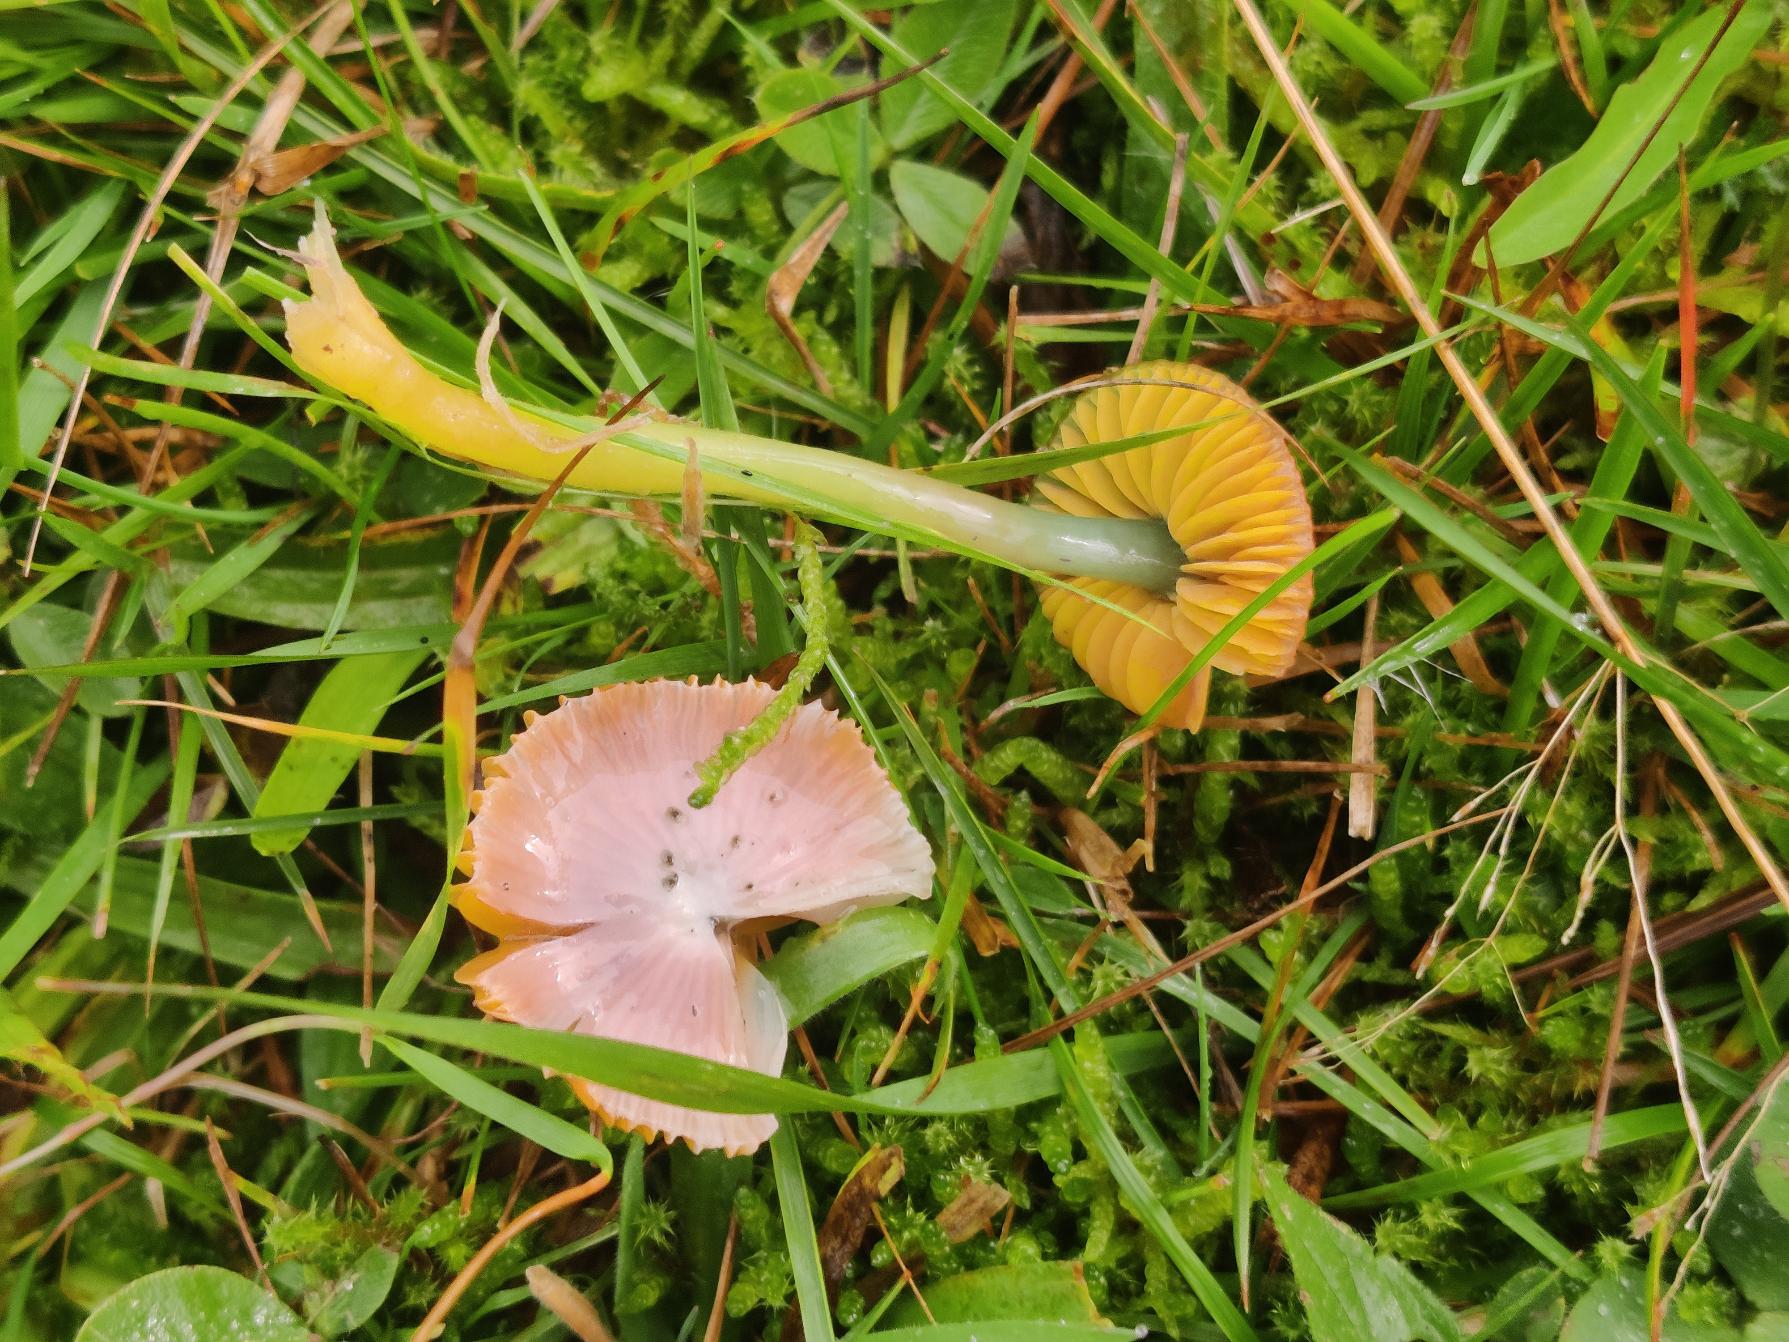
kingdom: Fungi
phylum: Basidiomycota
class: Agaricomycetes
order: Agaricales
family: Hygrophoraceae
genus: Gliophorus
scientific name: Gliophorus psittacinus
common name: Papegøje-vokshat
